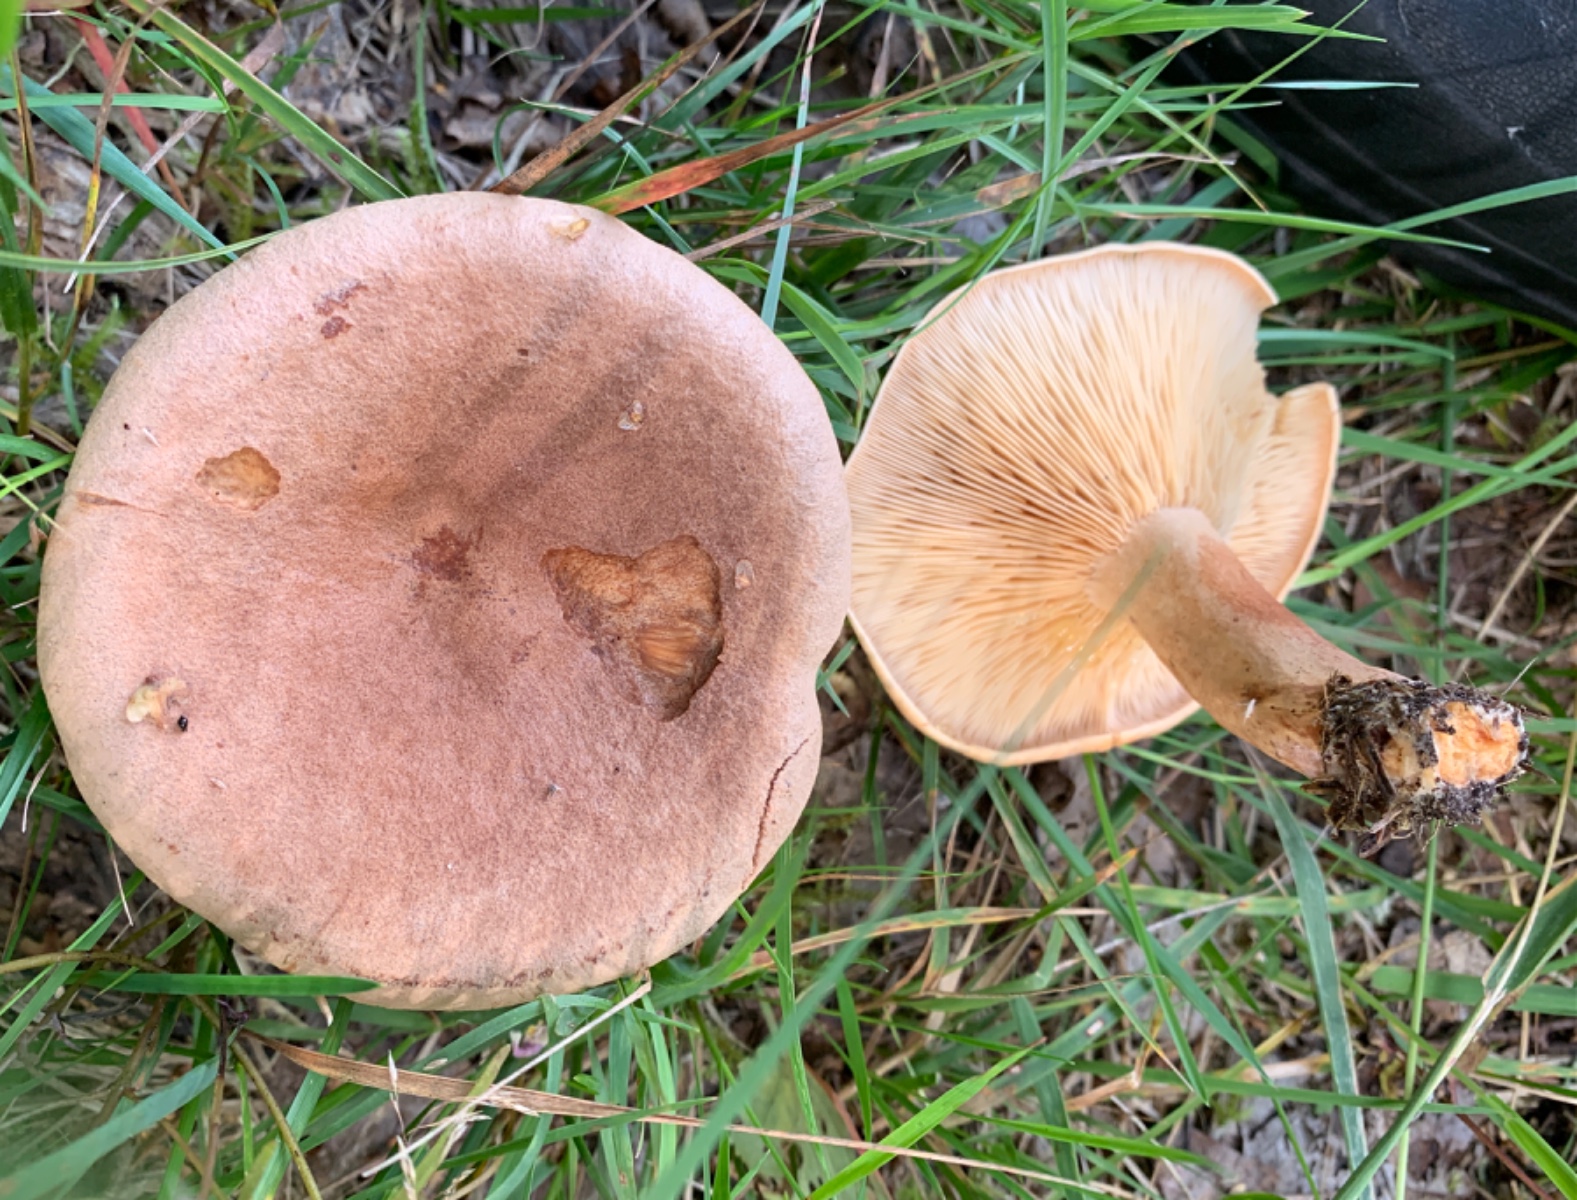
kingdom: Fungi
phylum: Basidiomycota
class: Agaricomycetes
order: Russulales
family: Russulaceae
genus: Lactarius
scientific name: Lactarius helvus
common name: mose-mælkehat
